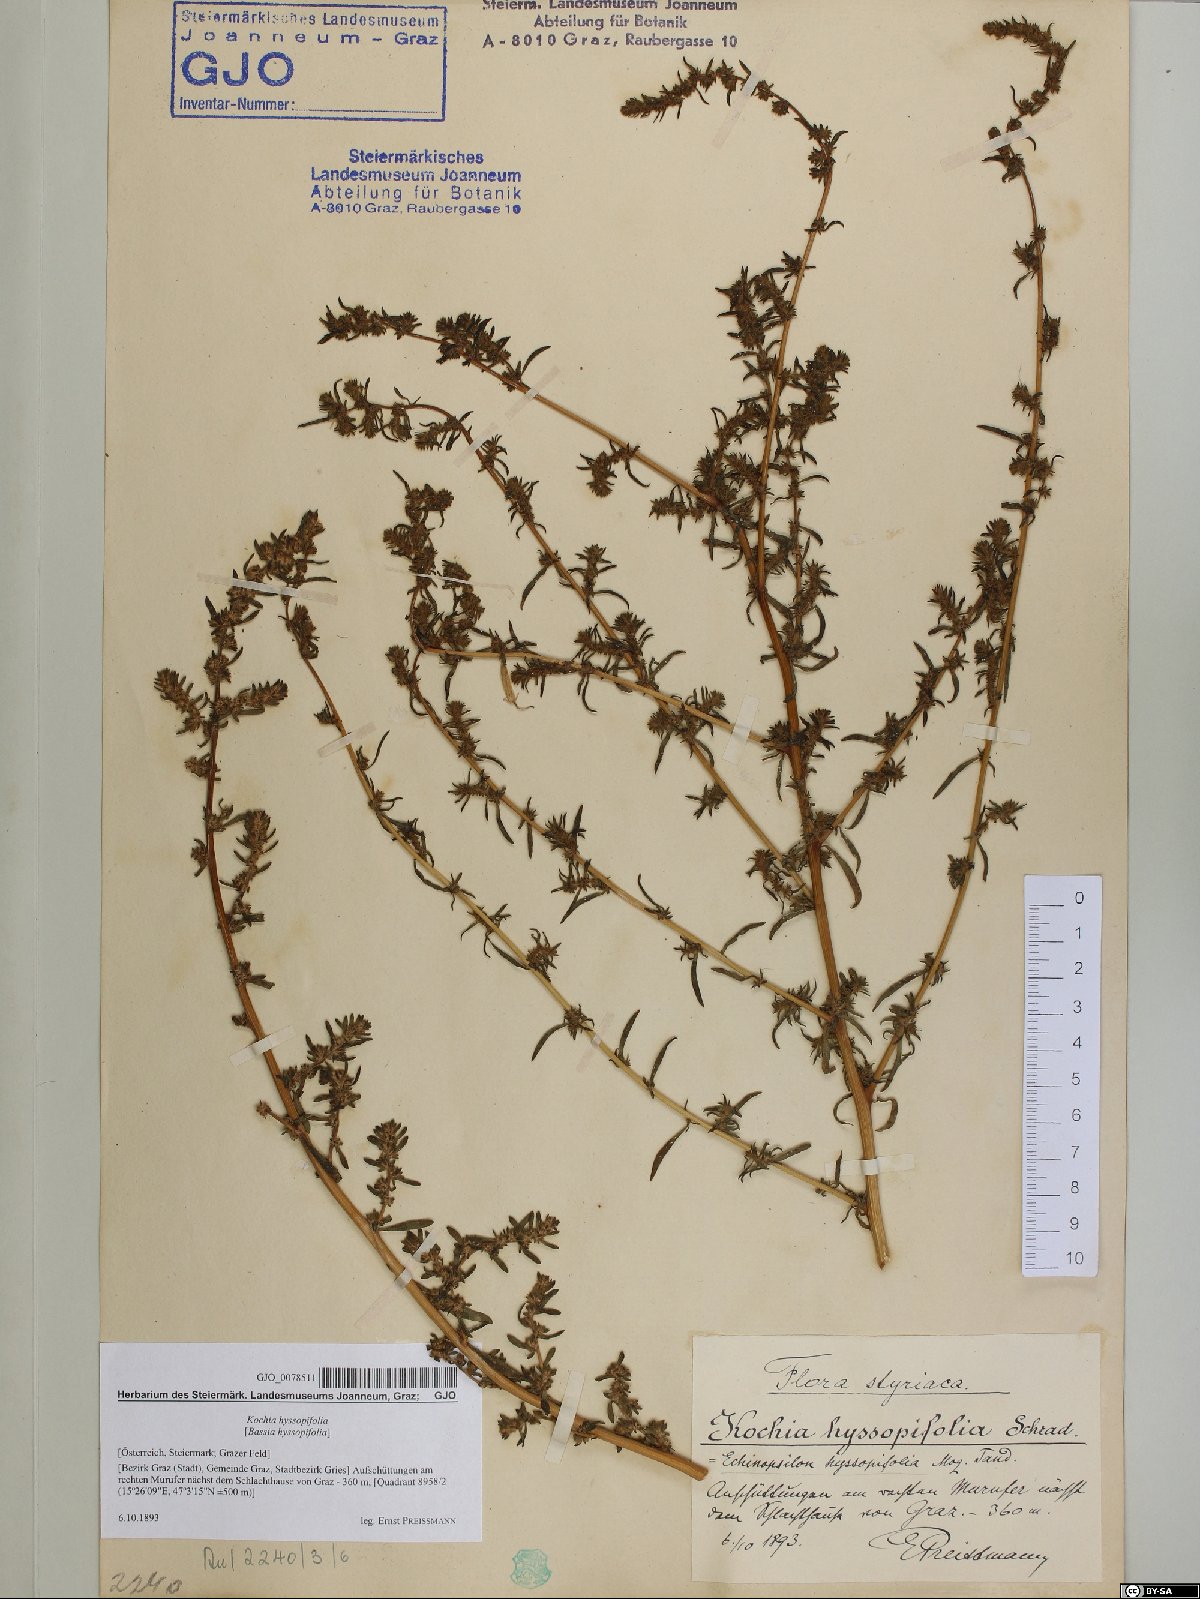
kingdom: Plantae
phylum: Tracheophyta
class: Magnoliopsida
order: Caryophyllales
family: Amaranthaceae
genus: Bassia
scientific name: Bassia hyssopifolia
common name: Fivehorn smotherweed
